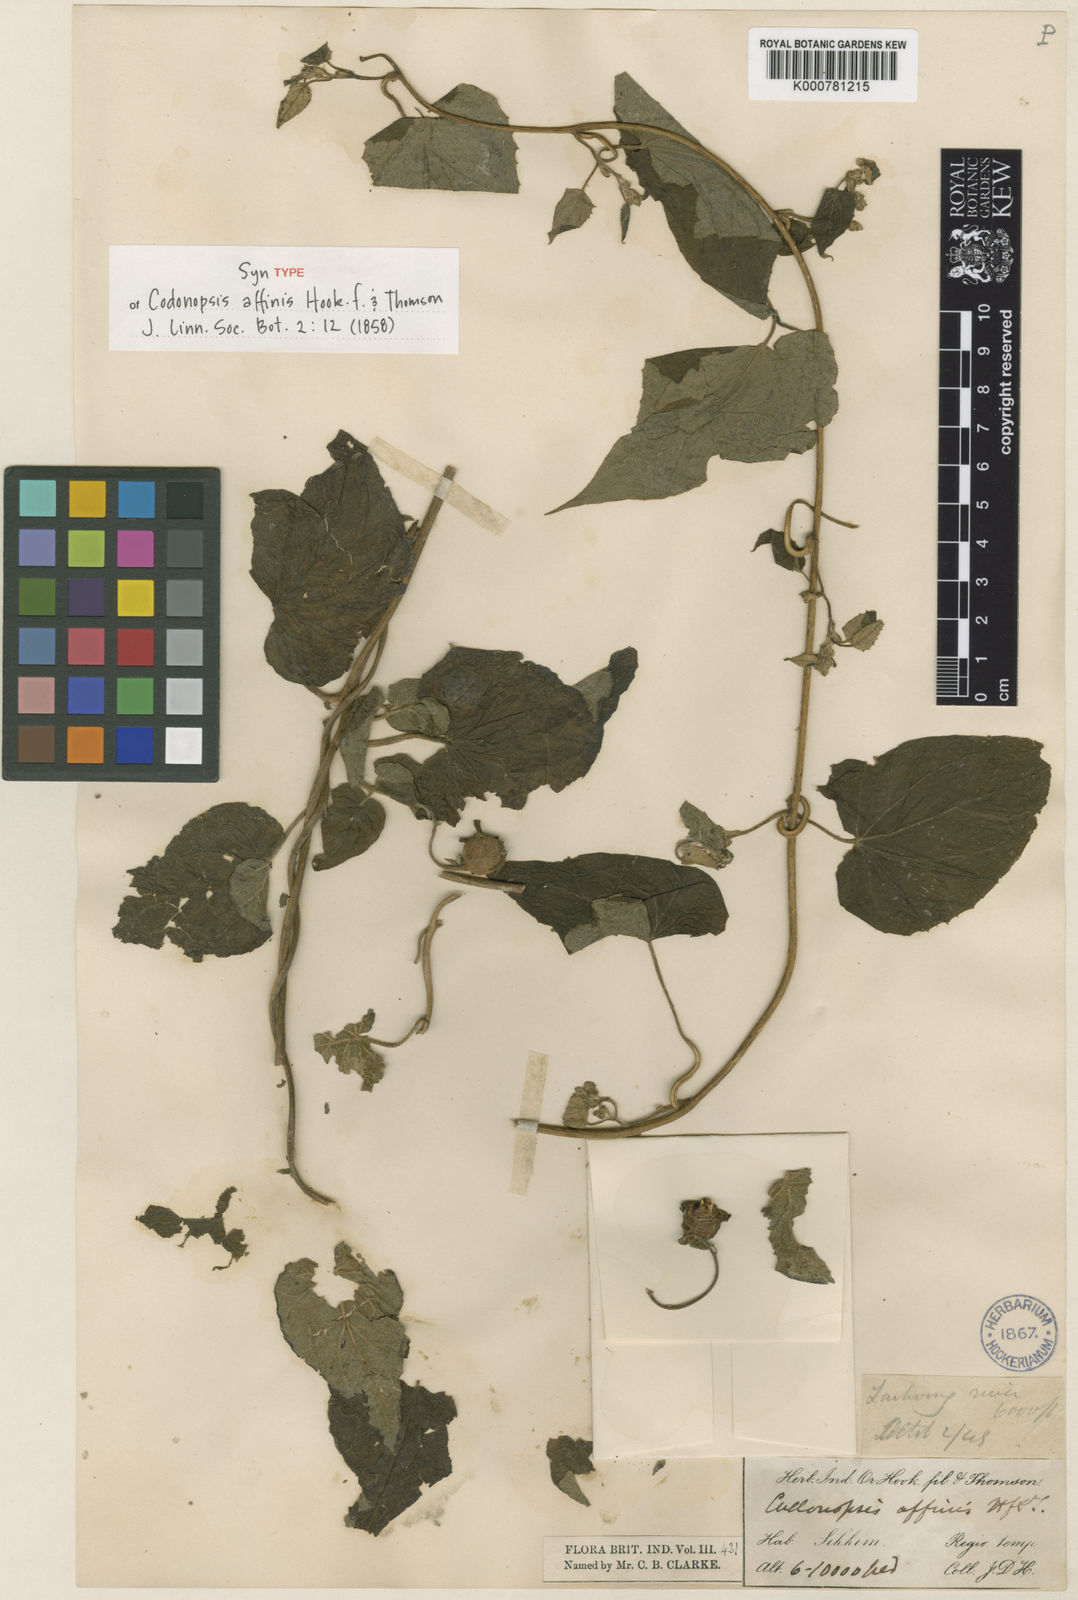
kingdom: Plantae
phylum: Tracheophyta
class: Magnoliopsida
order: Asterales
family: Campanulaceae
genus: Codonopsis
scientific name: Codonopsis affinis
